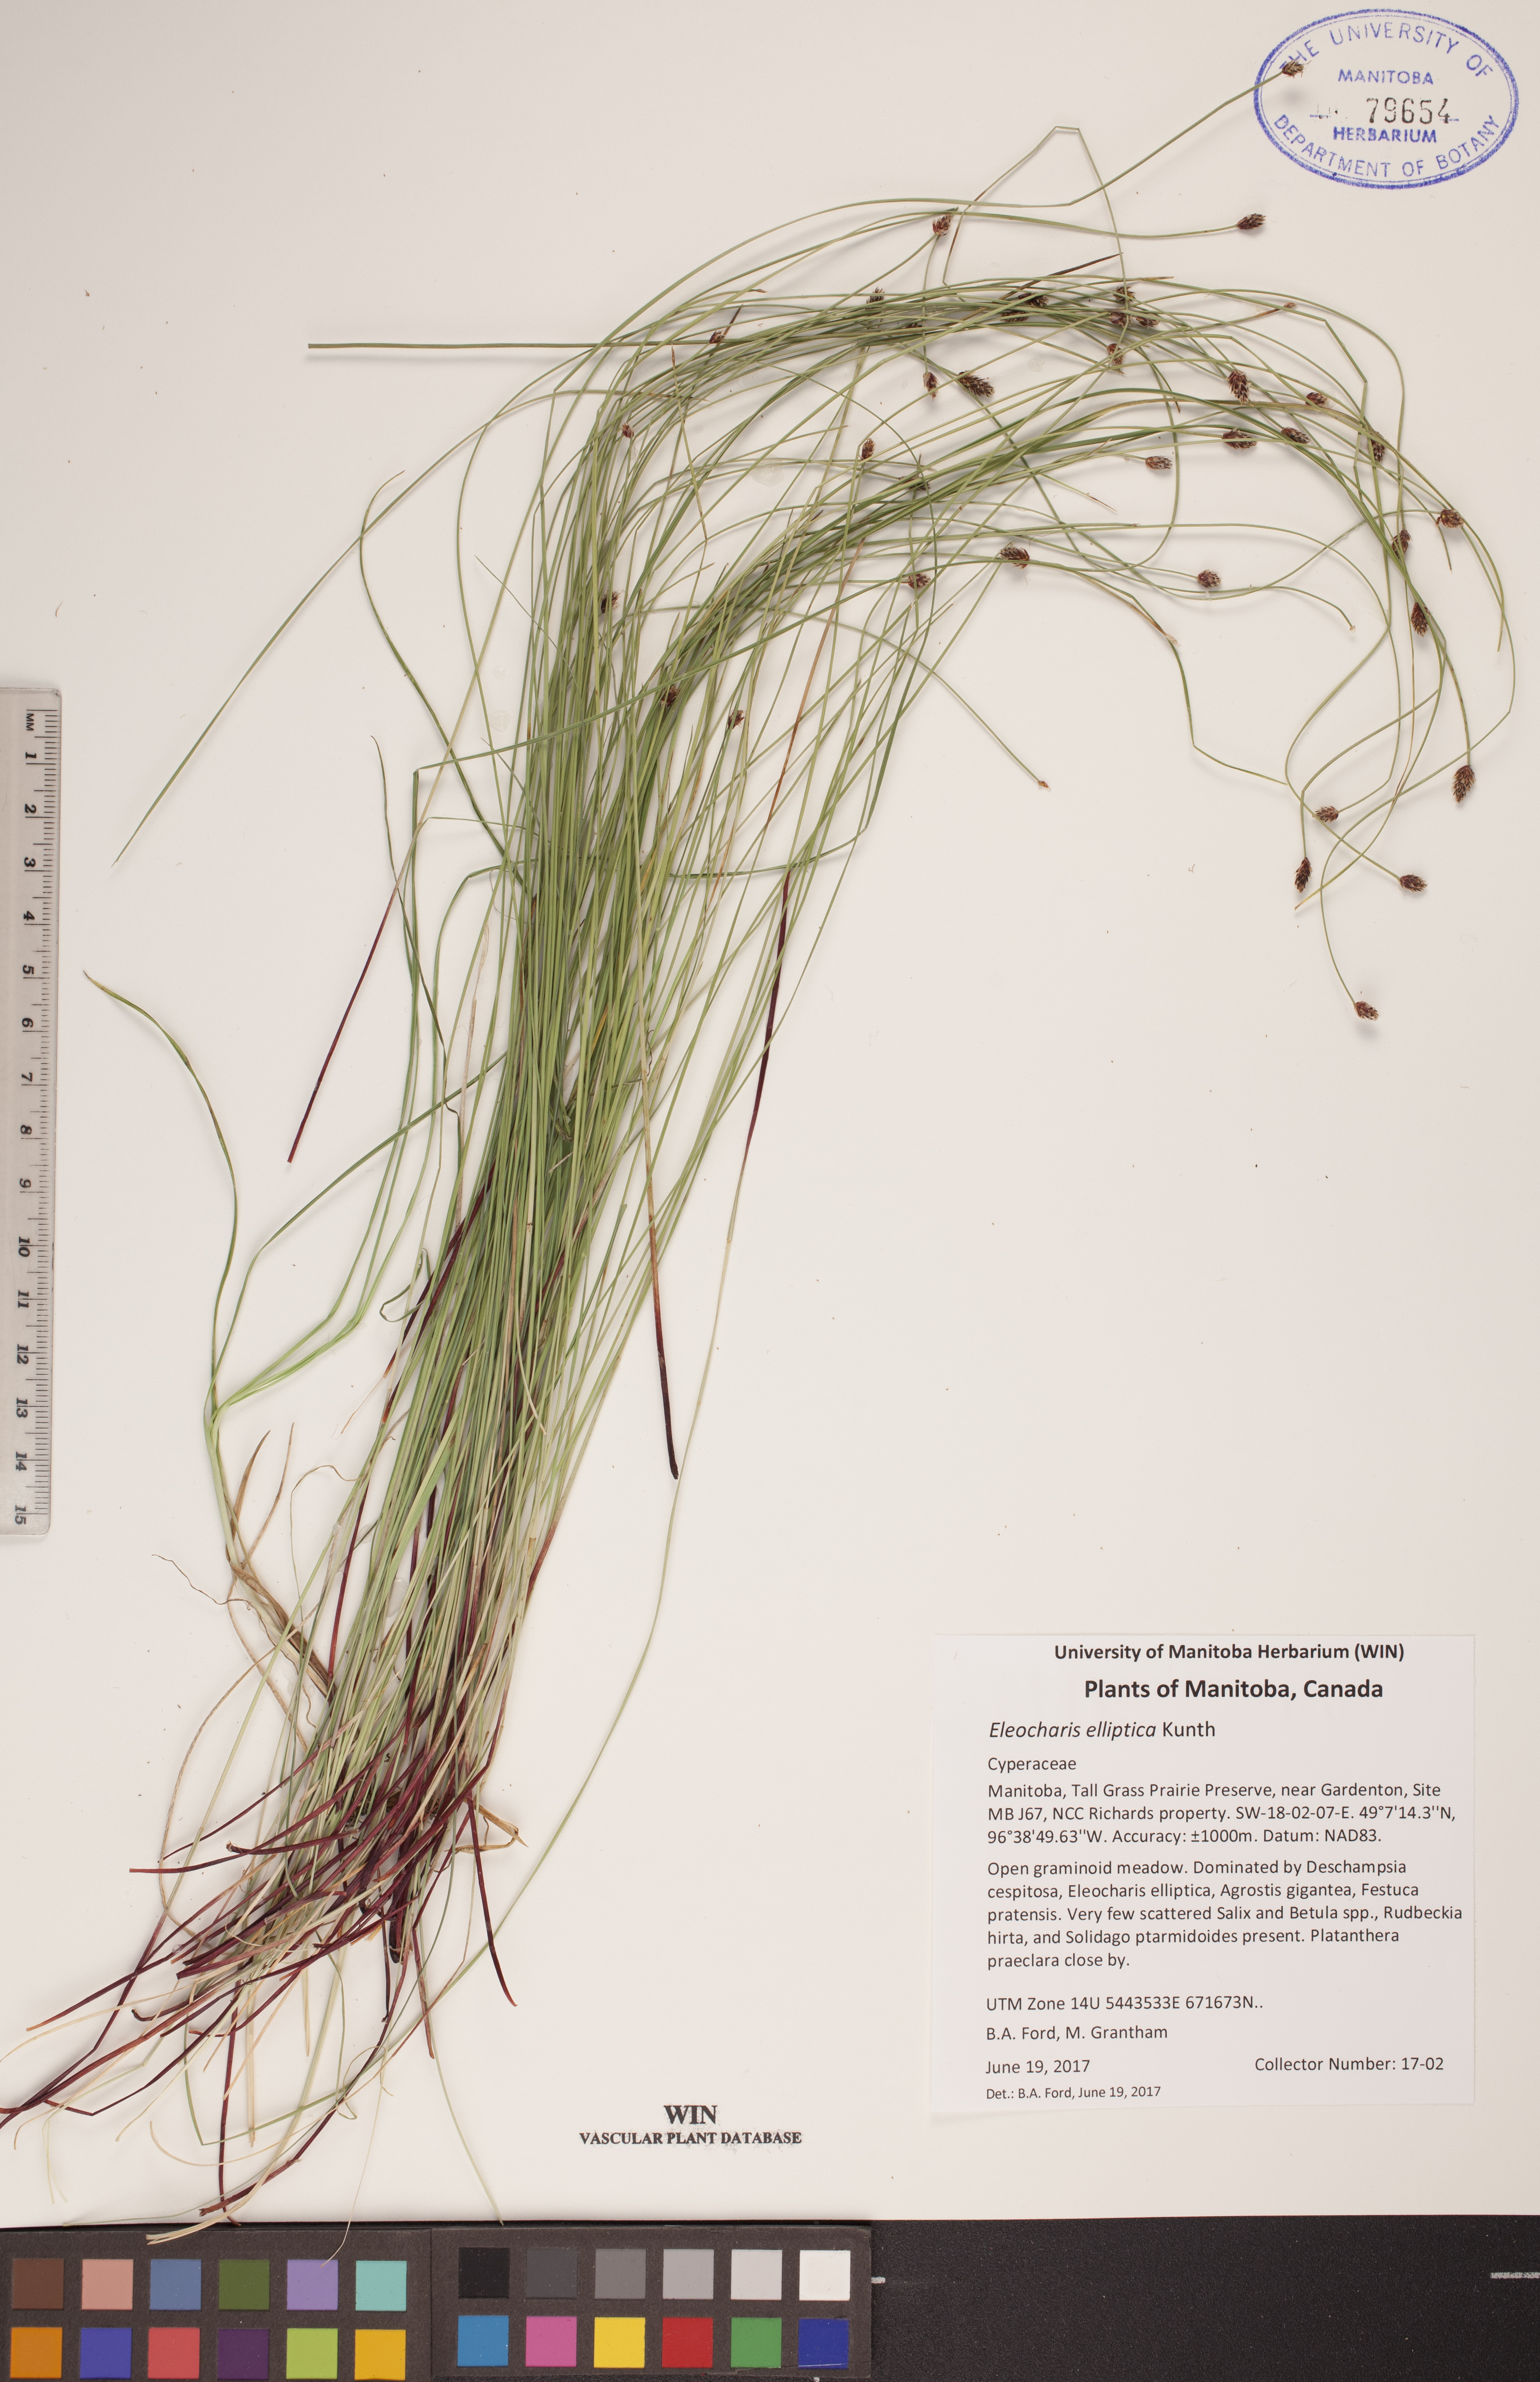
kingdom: Plantae
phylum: Tracheophyta
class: Liliopsida
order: Poales
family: Cyperaceae
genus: Eleocharis
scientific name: Eleocharis elliptica
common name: Capitate spikerush
